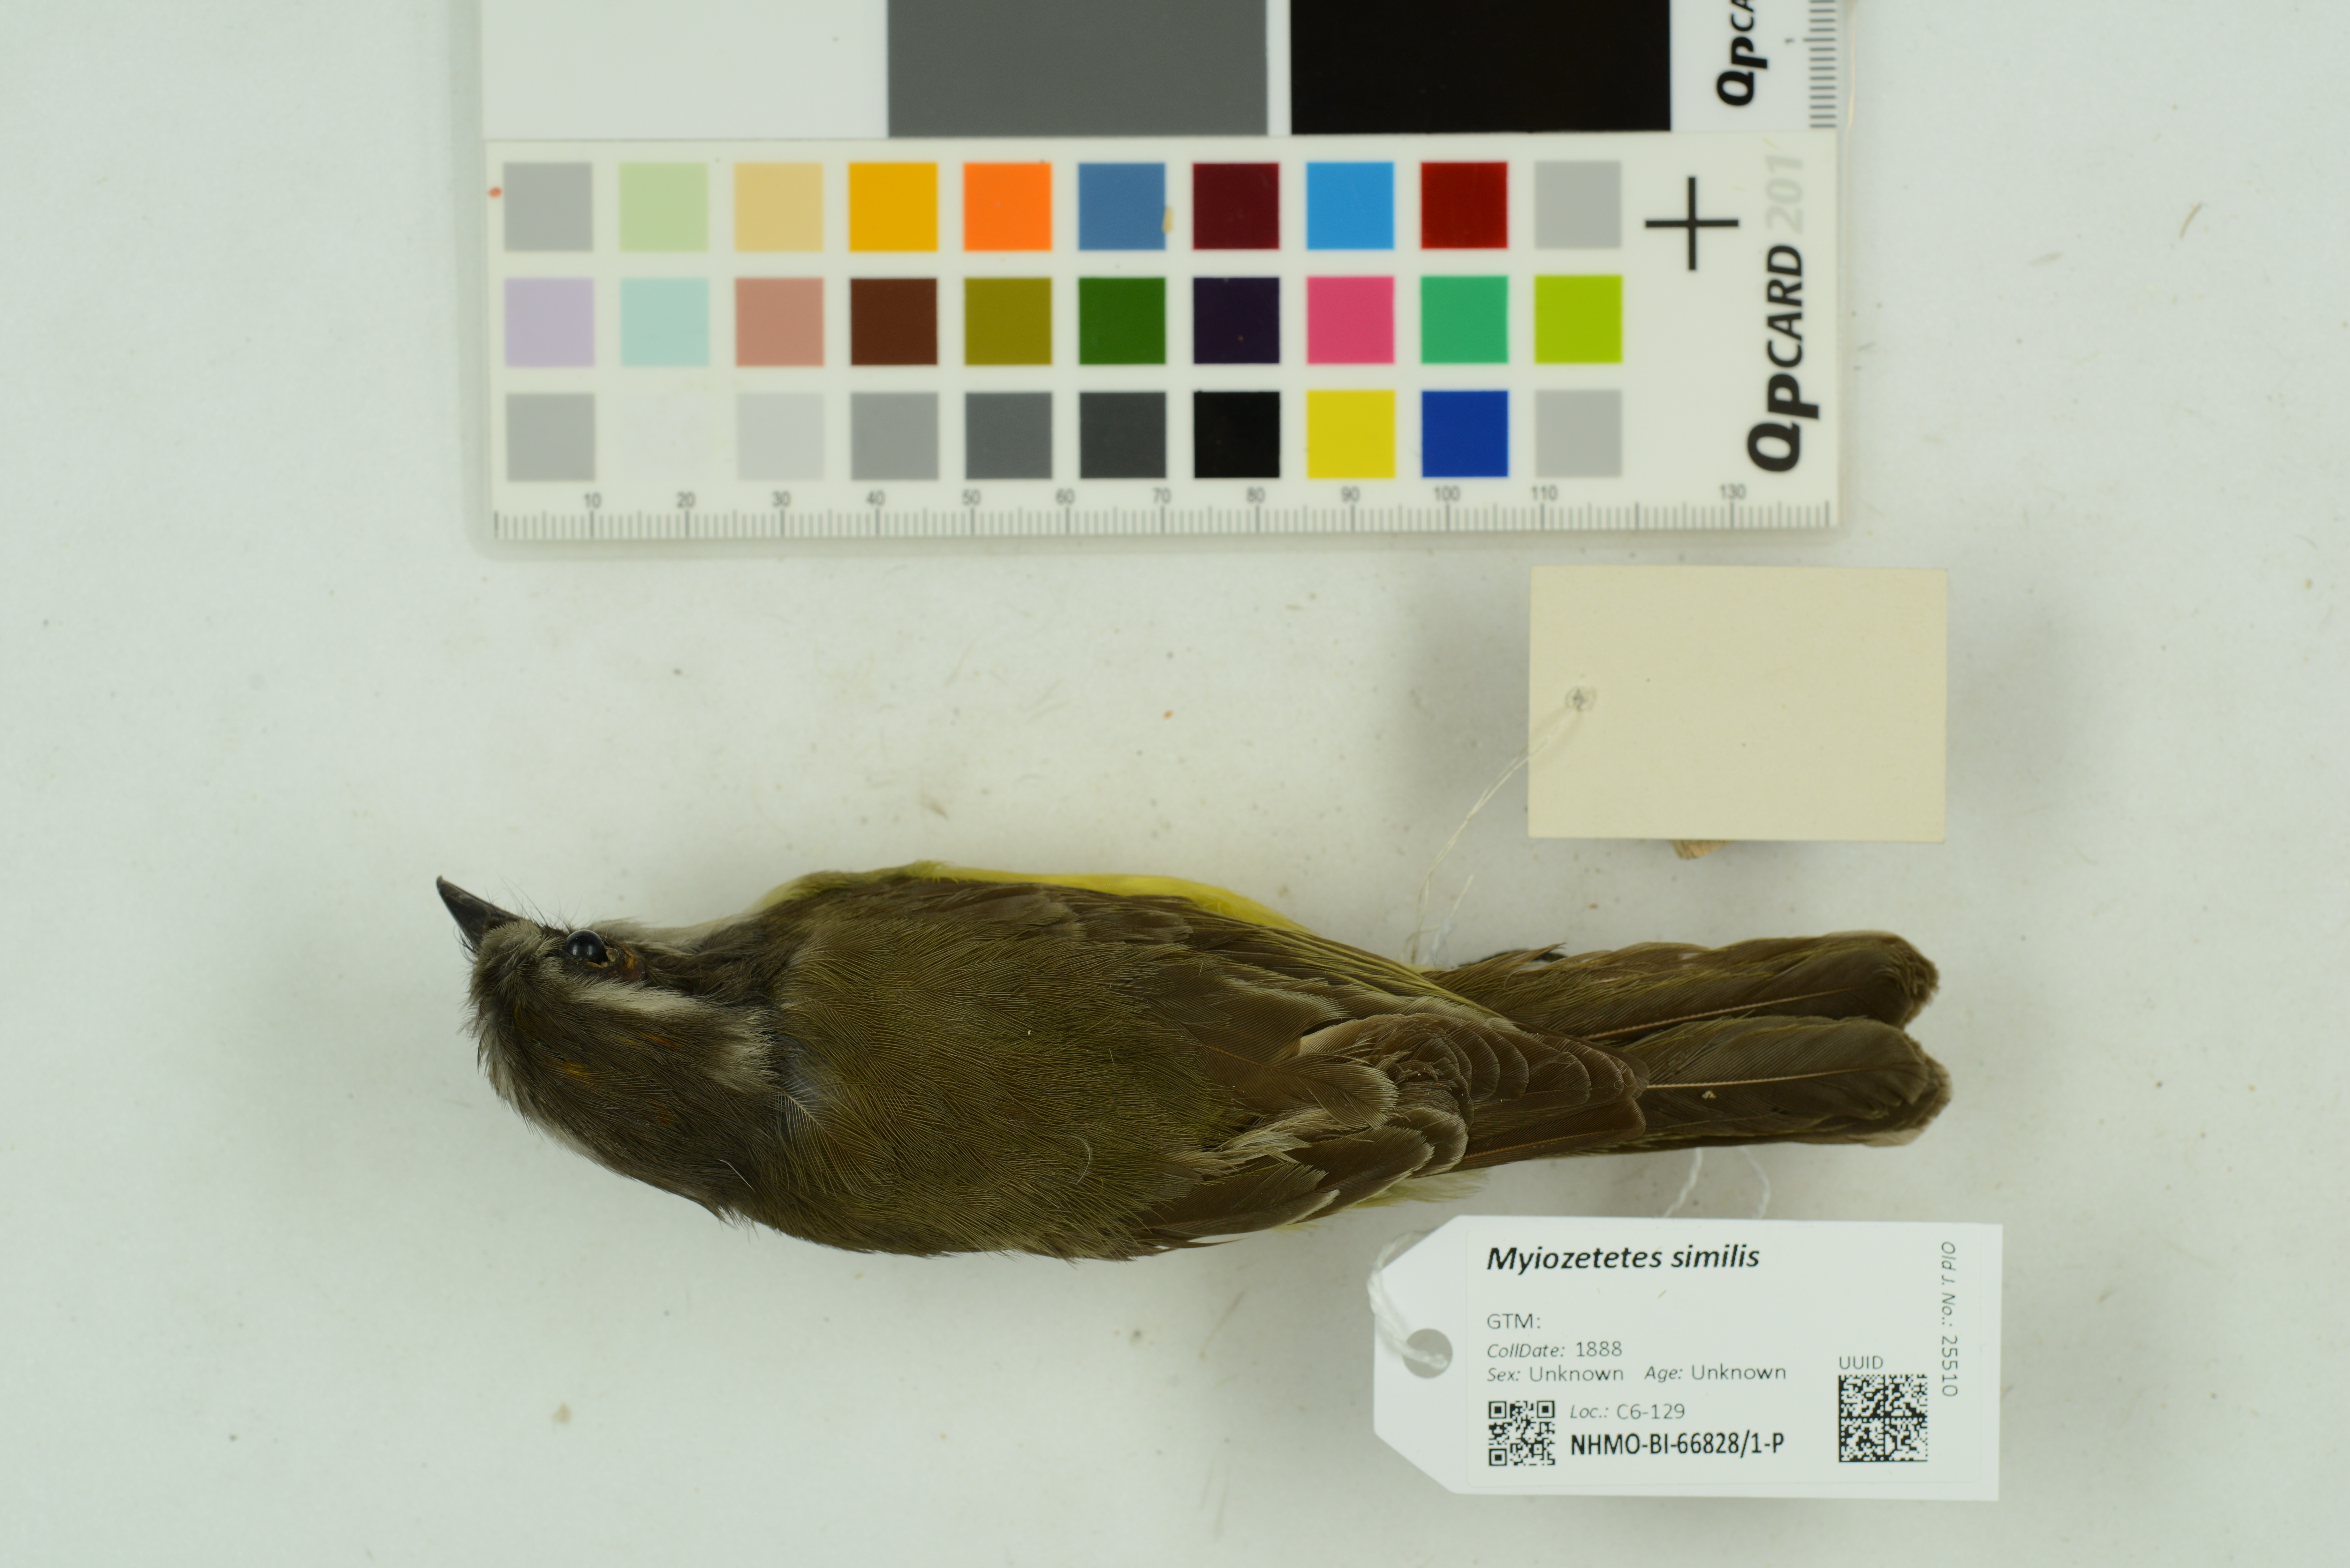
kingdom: Animalia
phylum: Chordata
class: Aves
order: Passeriformes
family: Tyrannidae
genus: Myiozetetes
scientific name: Myiozetetes similis
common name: Social flycatcher
